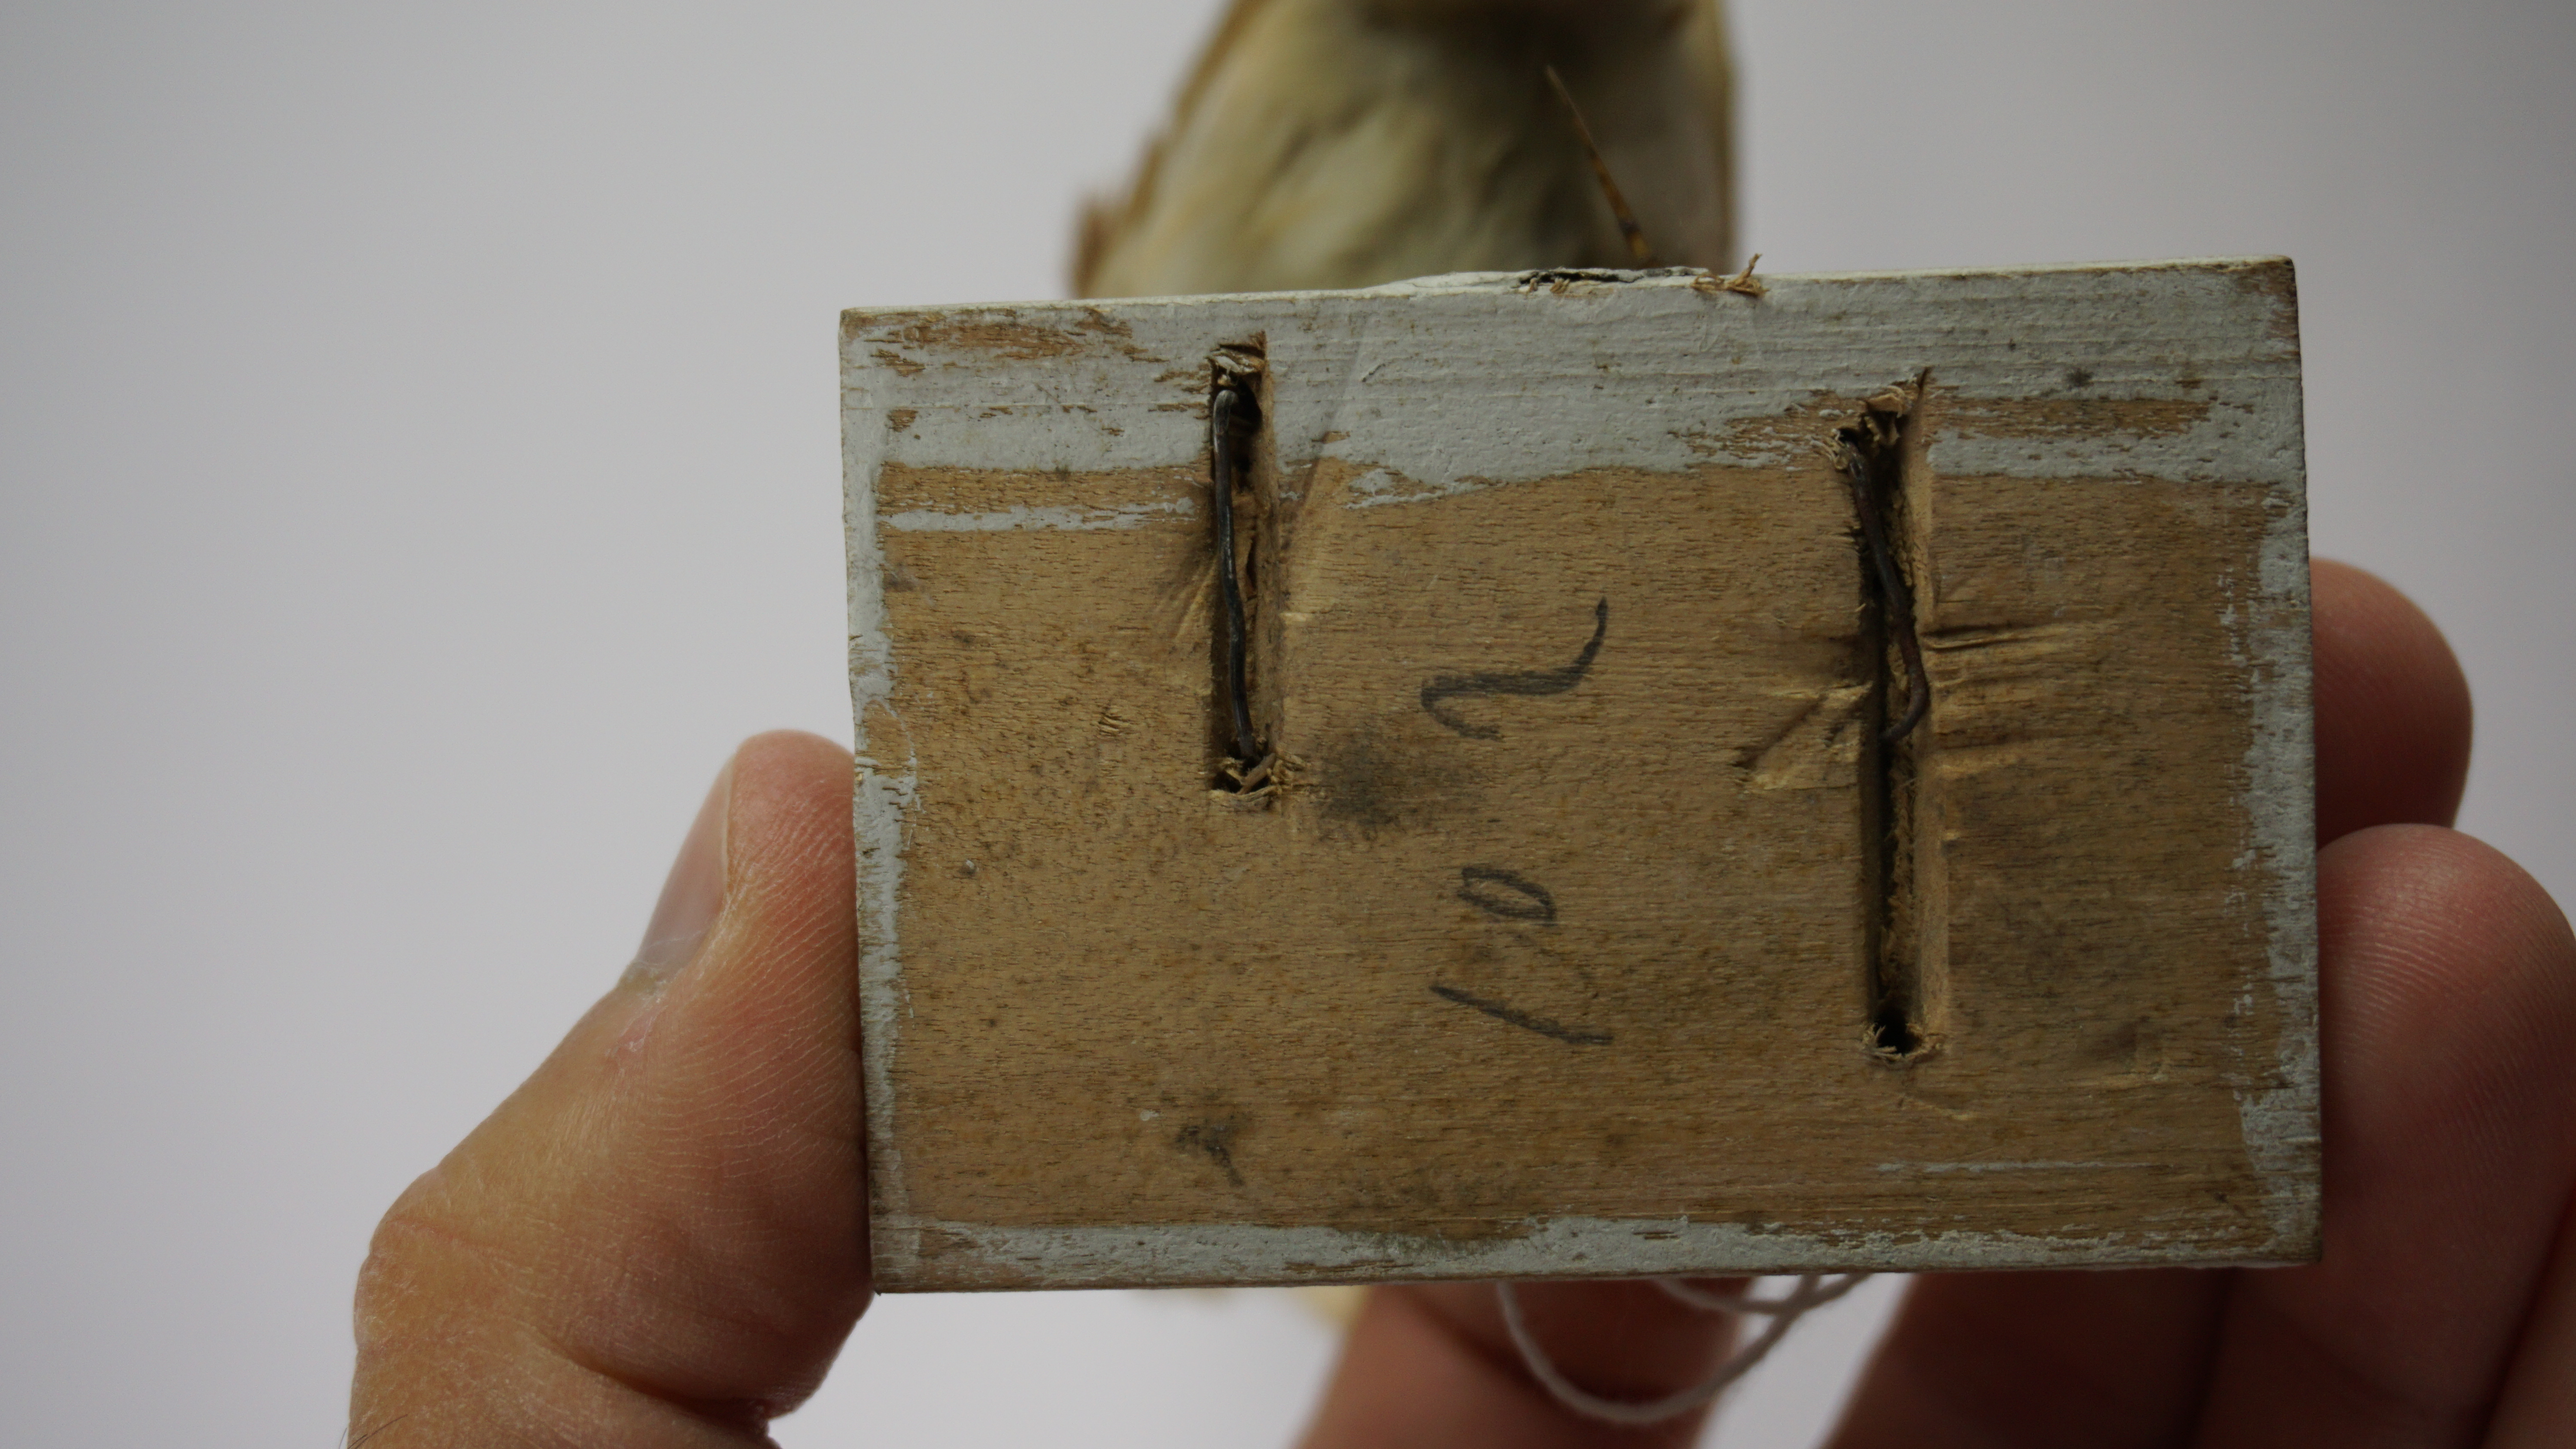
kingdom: Animalia
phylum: Chordata
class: Aves
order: Passeriformes
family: Alaudidae
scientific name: Alaudidae
